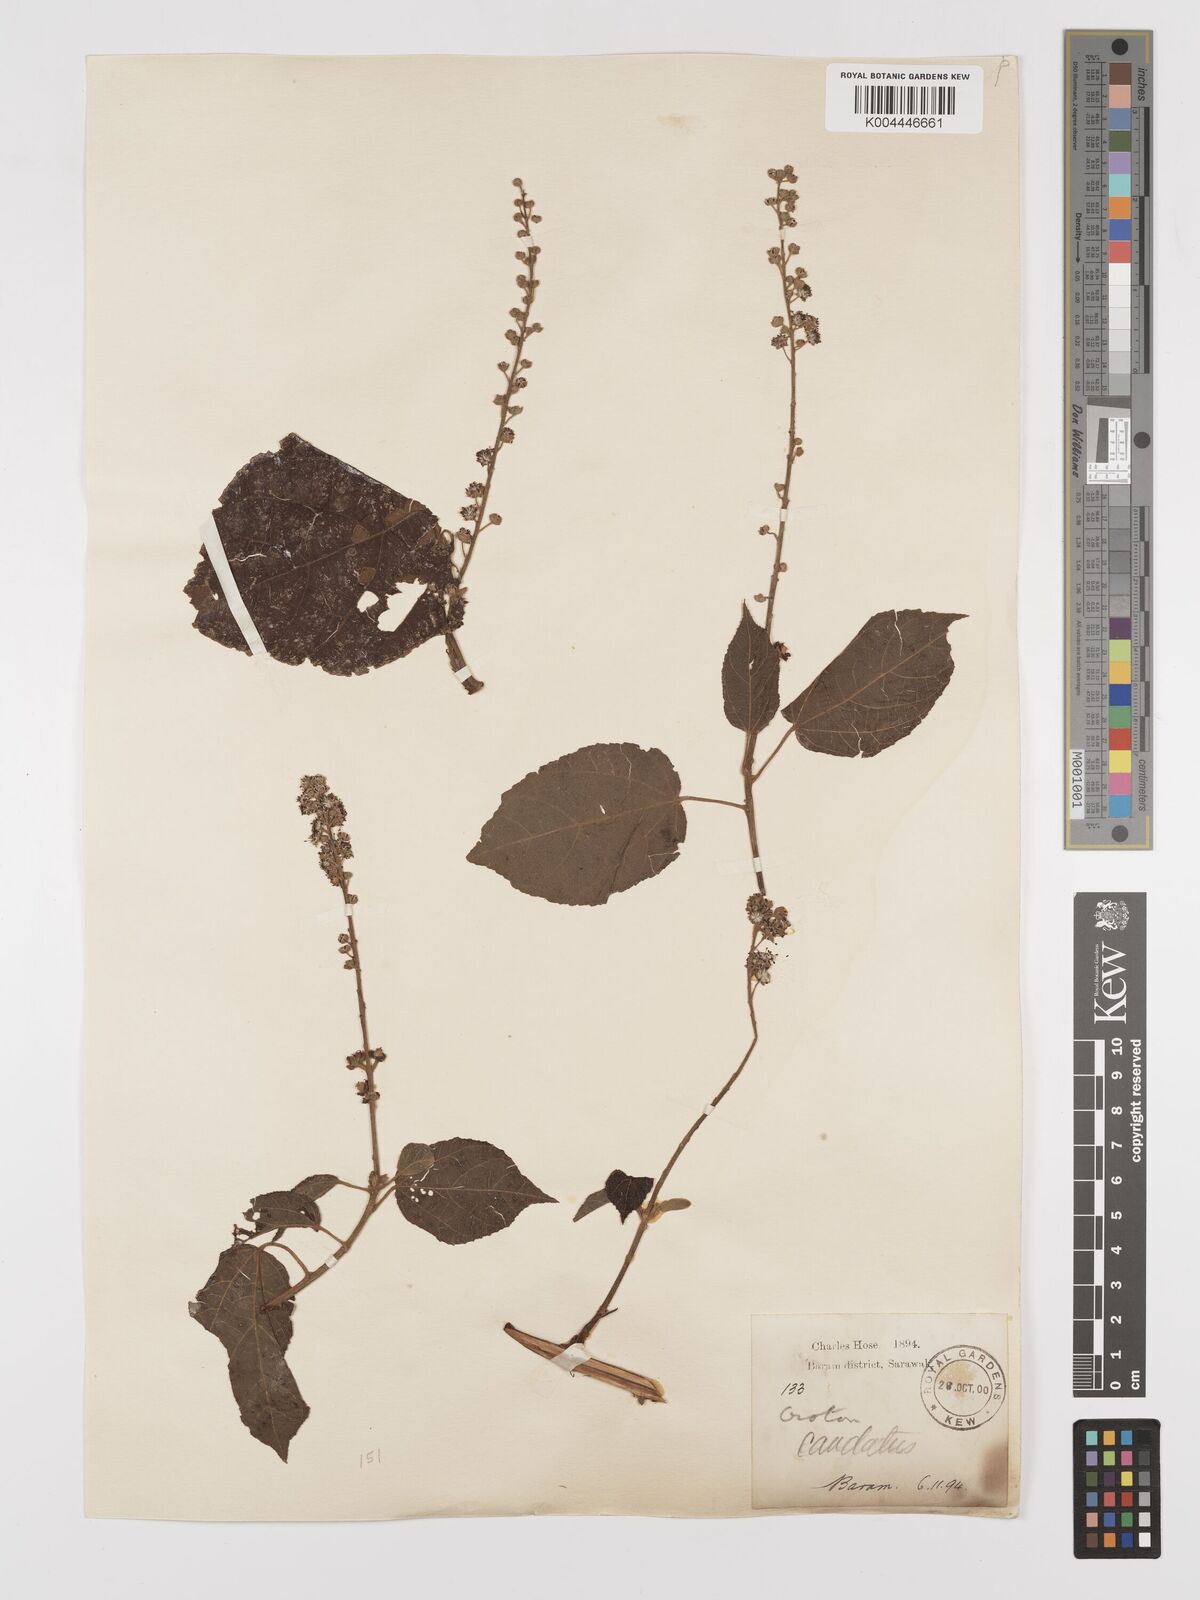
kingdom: Plantae
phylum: Tracheophyta
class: Magnoliopsida
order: Malpighiales
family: Euphorbiaceae
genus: Croton
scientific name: Croton caudatus
